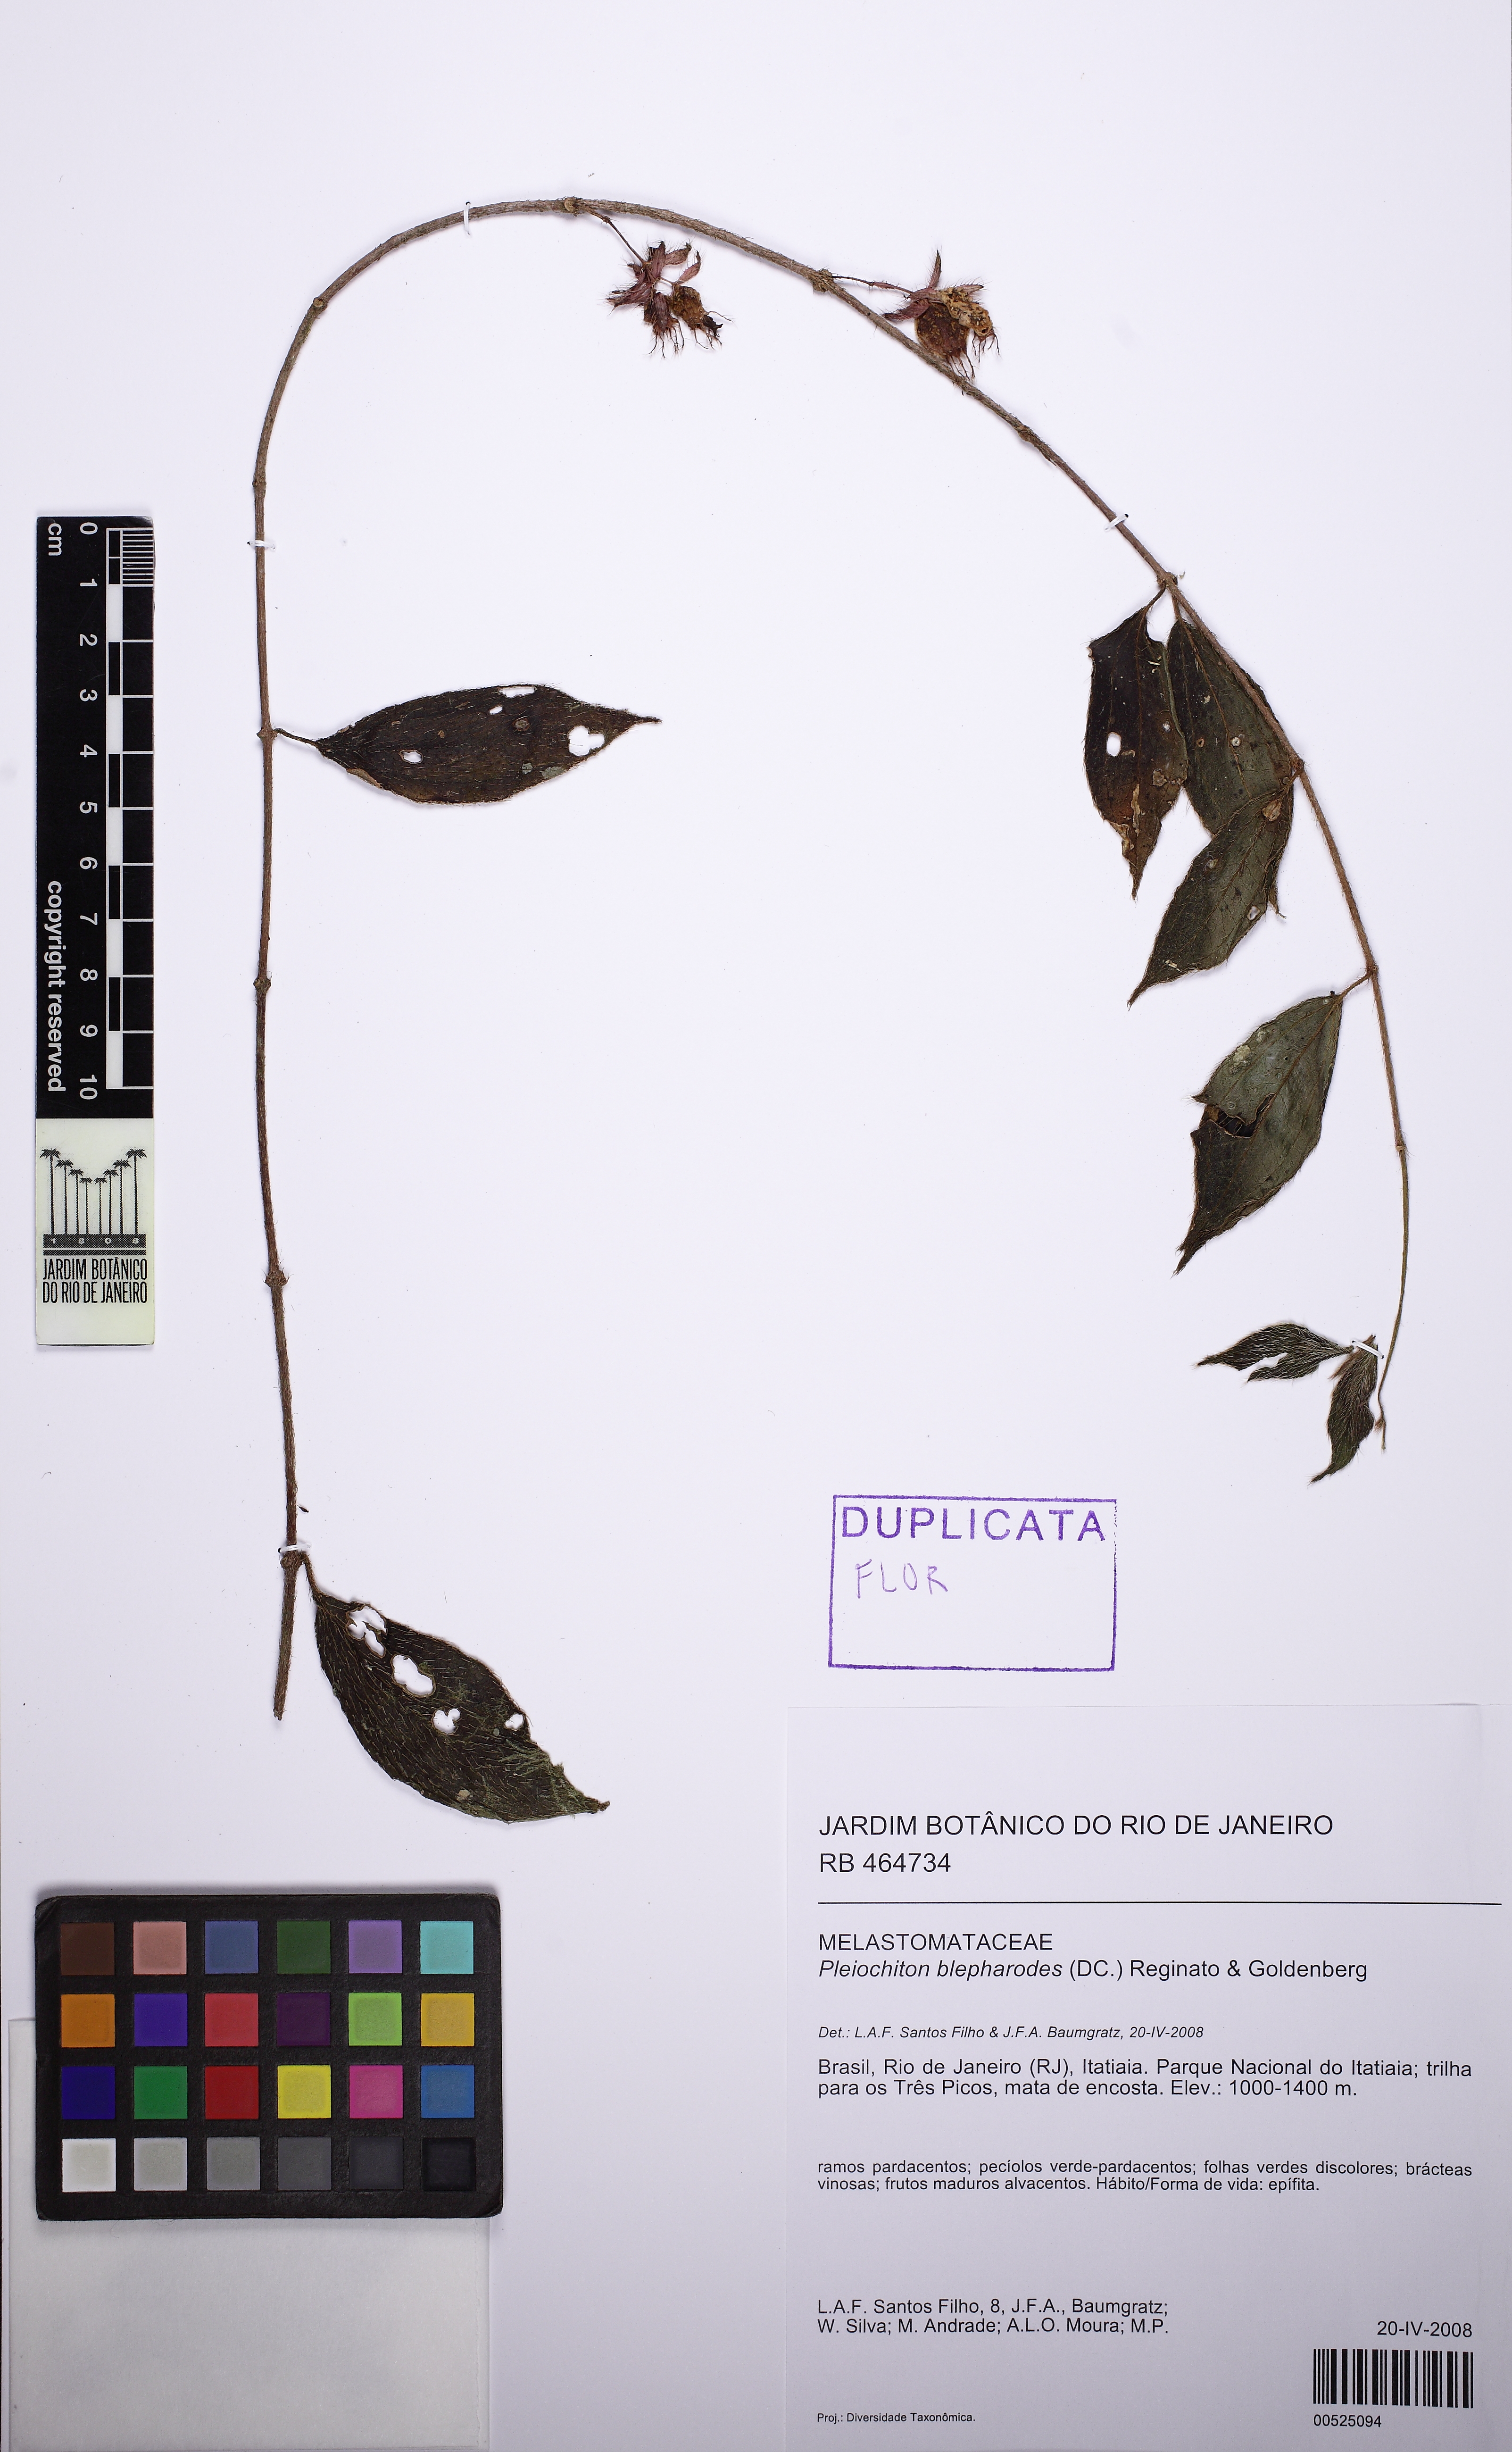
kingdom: Plantae
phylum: Tracheophyta
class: Magnoliopsida
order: Myrtales
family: Melastomataceae
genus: Miconia
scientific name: Miconia blepharodes
